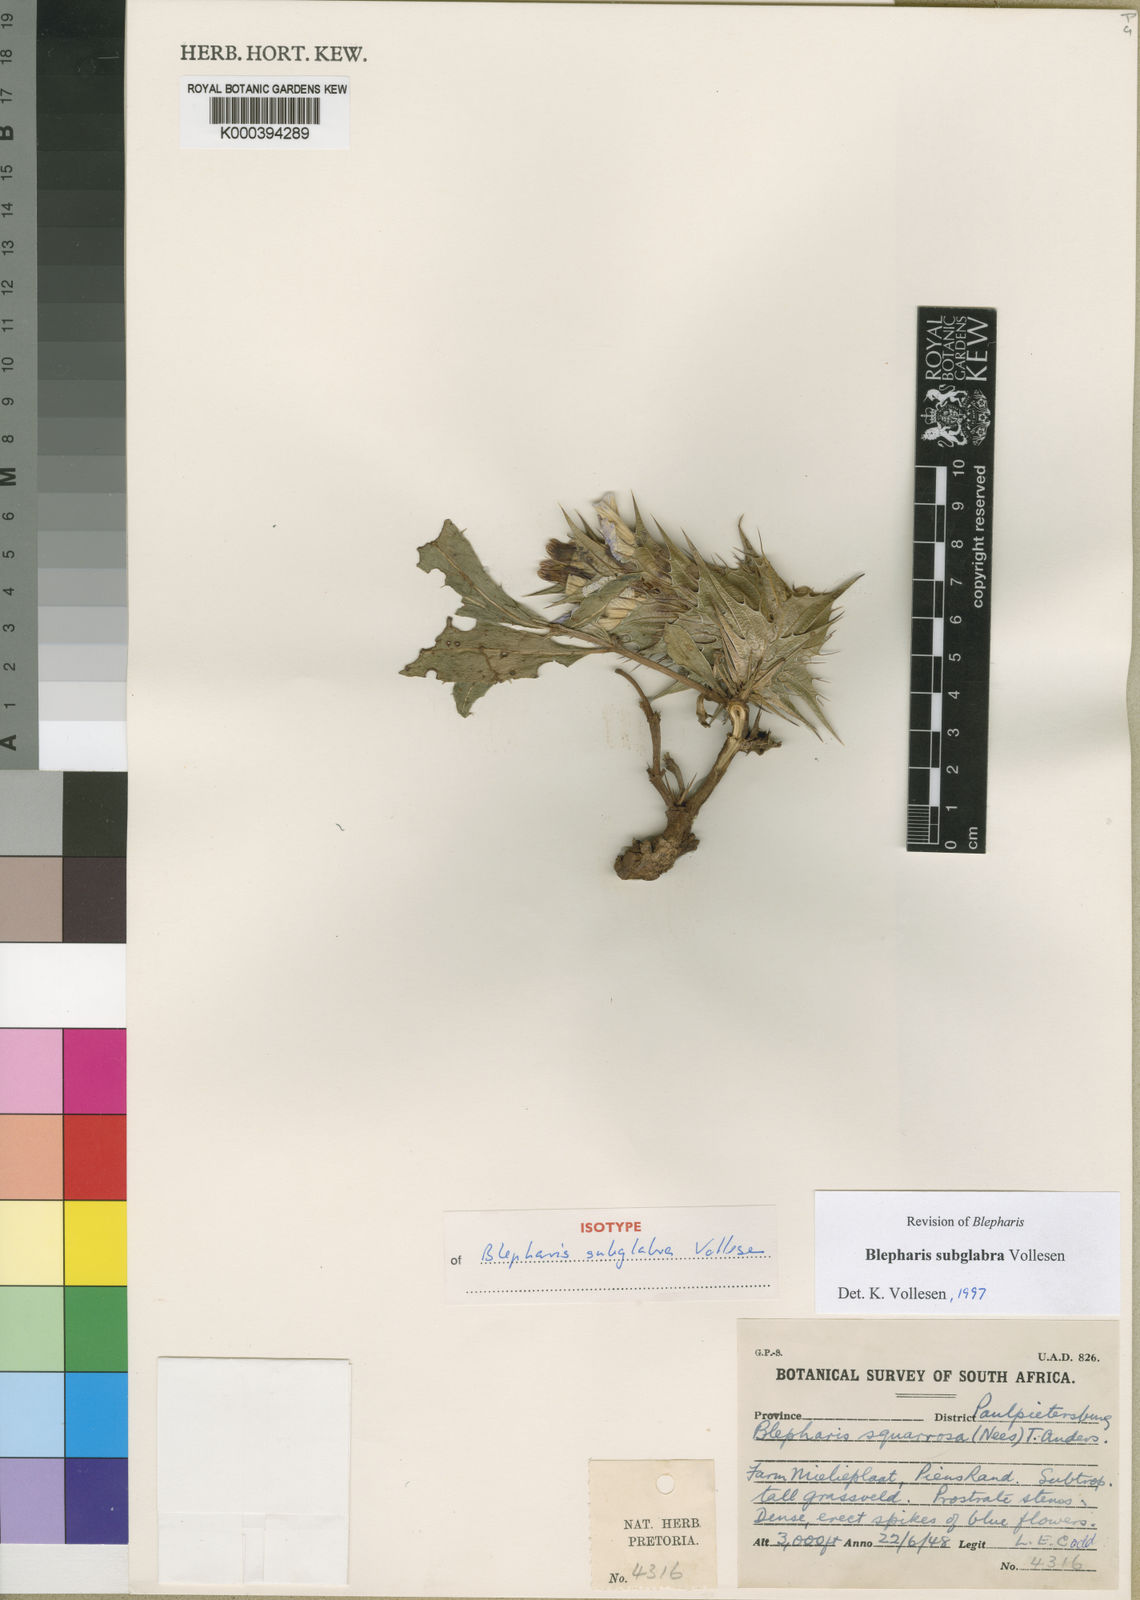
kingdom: Plantae
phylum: Tracheophyta
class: Magnoliopsida
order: Lamiales
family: Acanthaceae
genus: Blepharis
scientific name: Blepharis subglabra
